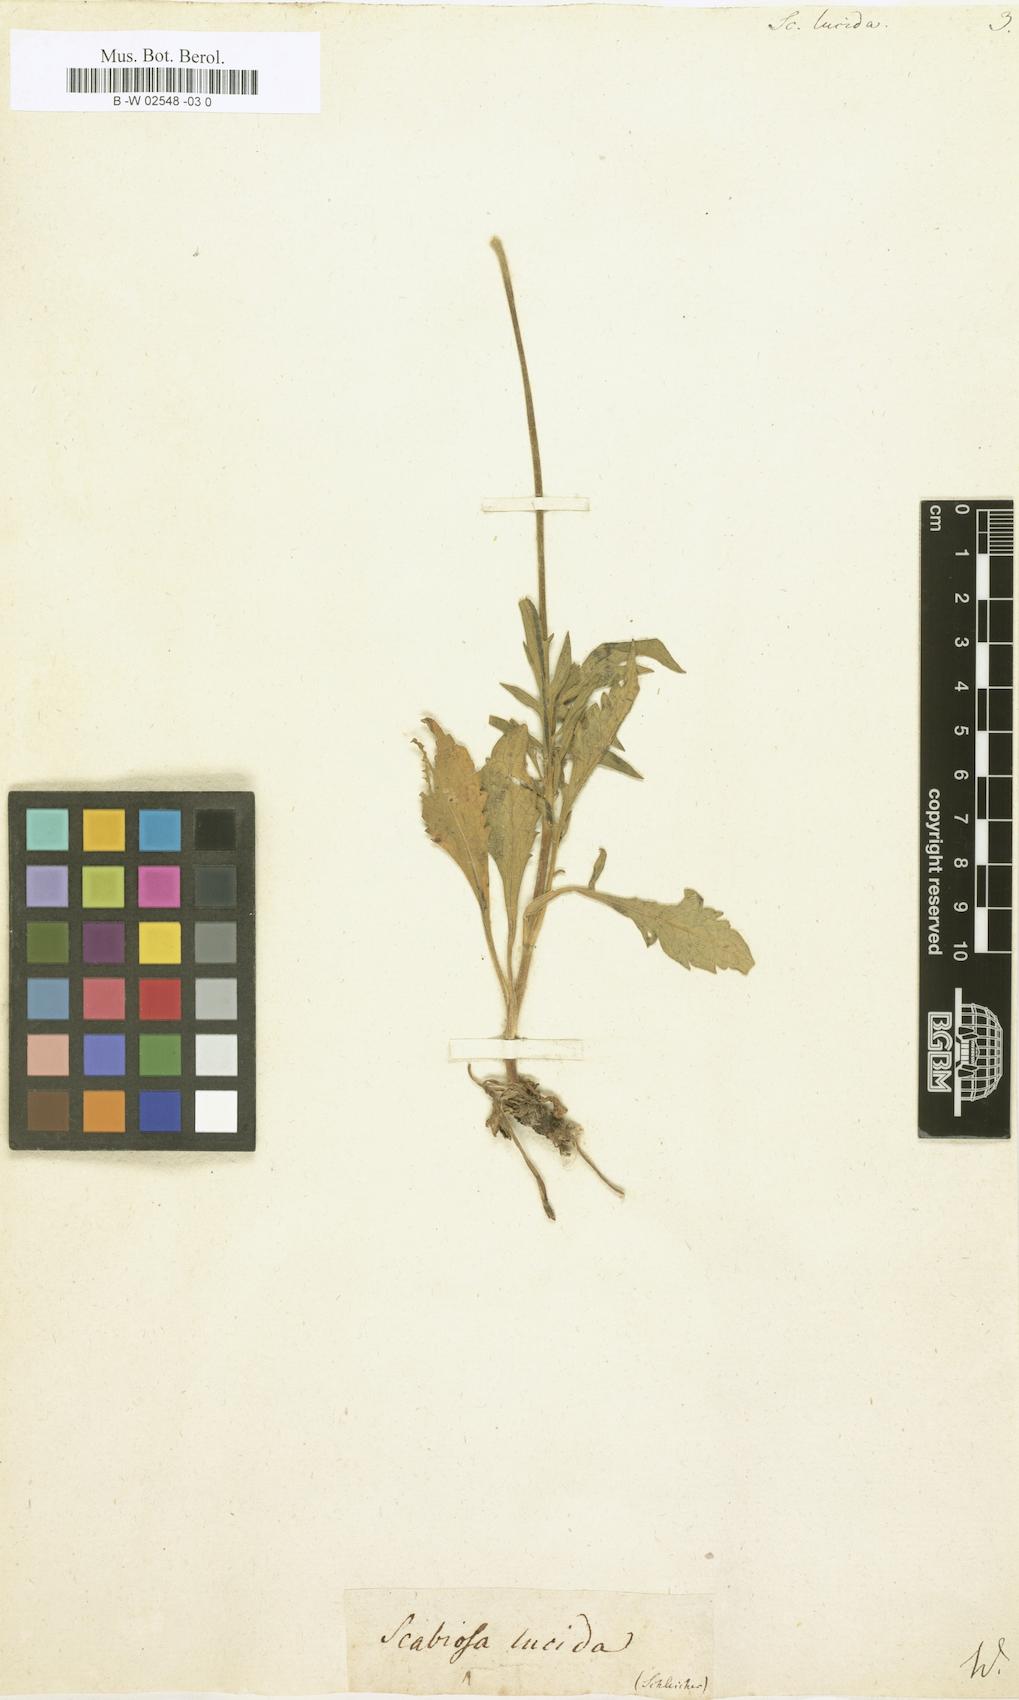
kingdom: Plantae
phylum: Tracheophyta
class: Magnoliopsida
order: Dipsacales
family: Caprifoliaceae
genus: Scabiosa
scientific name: Scabiosa lucida
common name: Shining scabious
